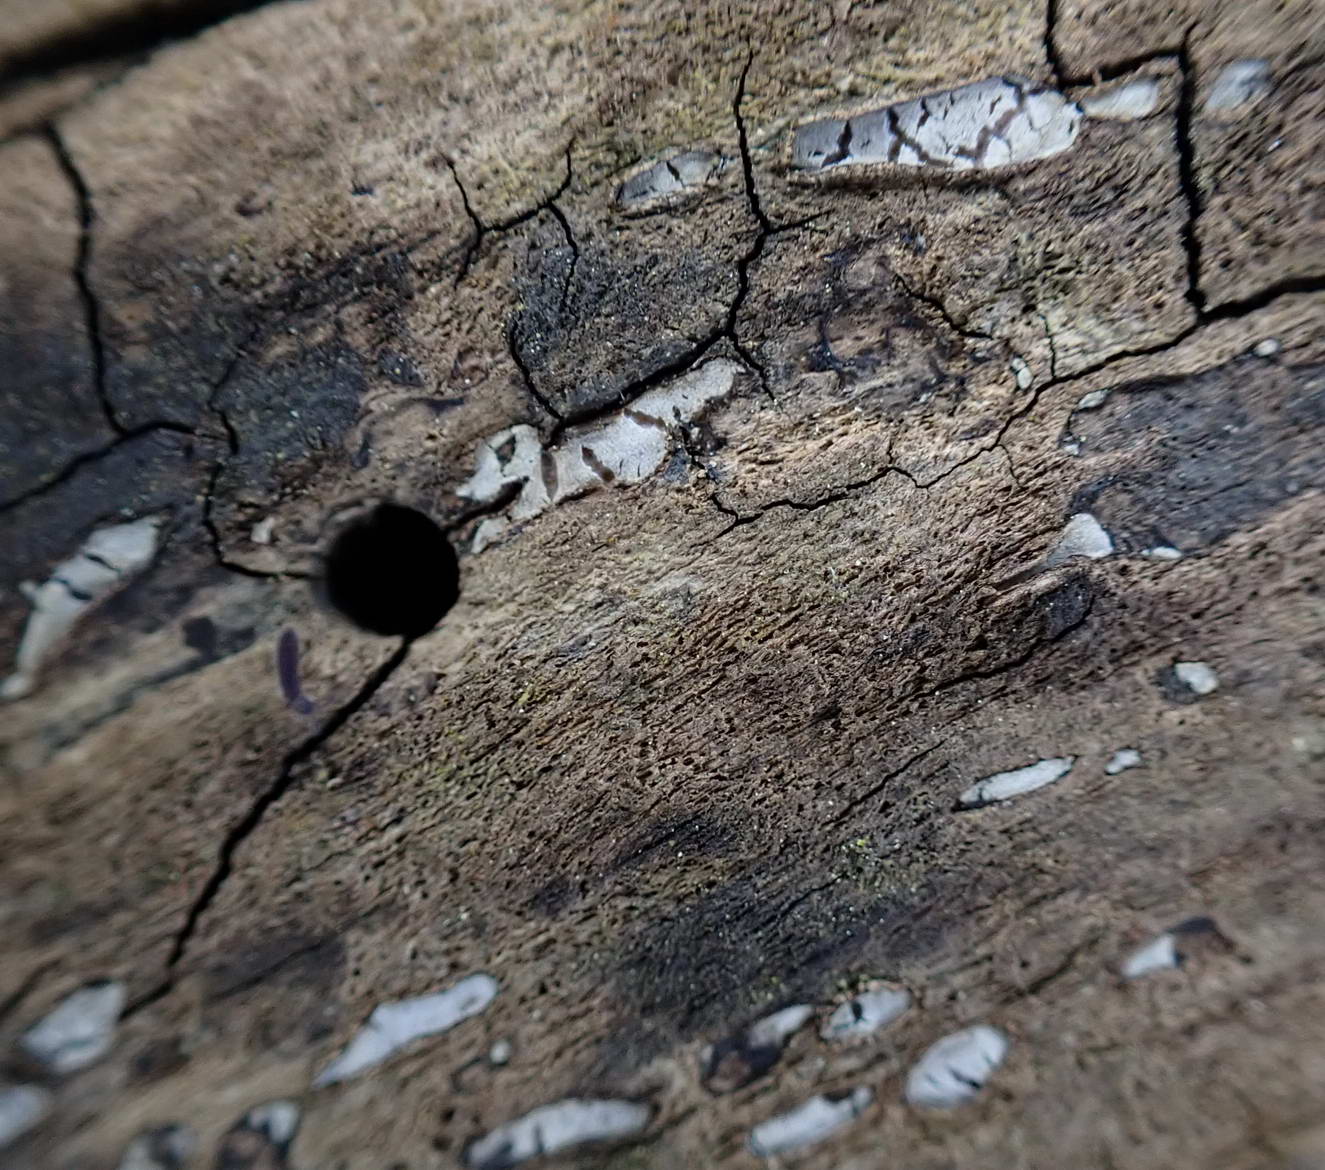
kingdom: Fungi
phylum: Ascomycota
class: Leotiomycetes
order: Chaetomellales
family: Marthamycetaceae
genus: Propolis
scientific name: Propolis farinosa
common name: almindelig vedsprængerskive
